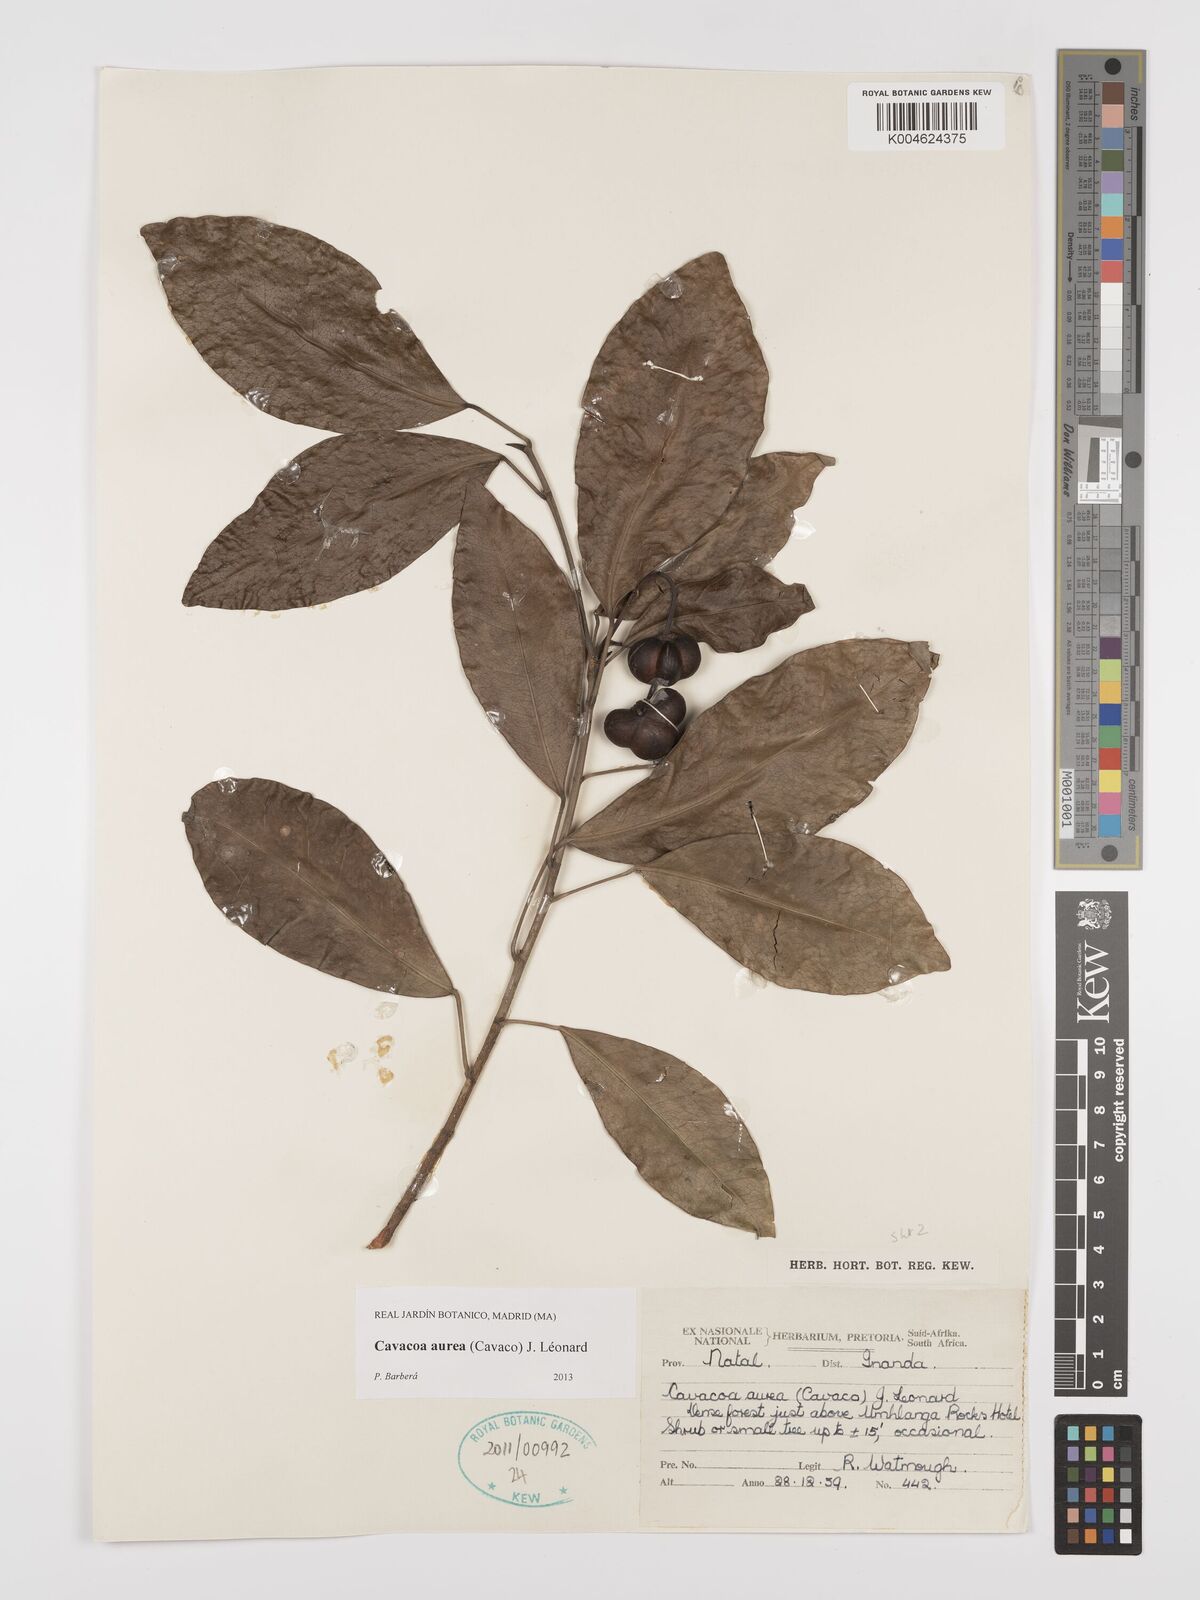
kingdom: Plantae
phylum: Tracheophyta
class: Magnoliopsida
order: Malpighiales
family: Euphorbiaceae
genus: Cavacoa
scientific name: Cavacoa aurea
